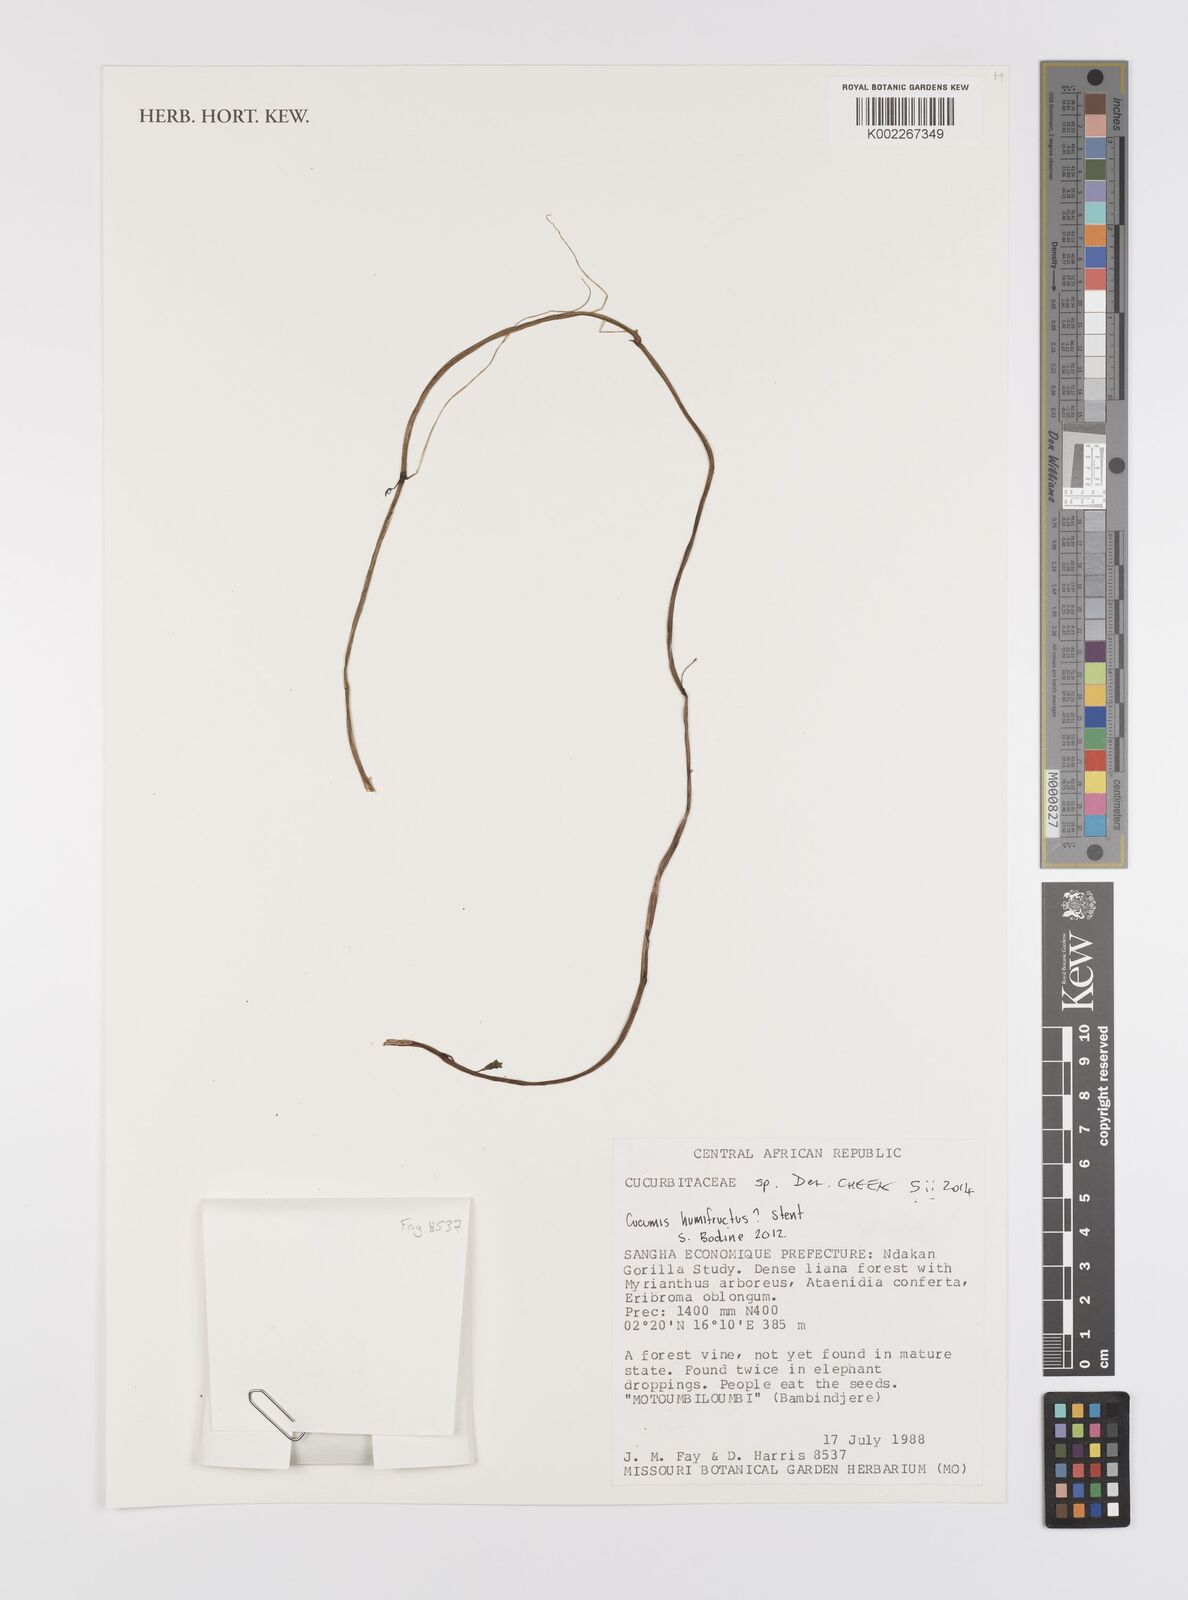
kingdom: Plantae
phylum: Tracheophyta
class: Magnoliopsida
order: Cucurbitales
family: Cucurbitaceae
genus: Cucumis
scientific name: Cucumis
